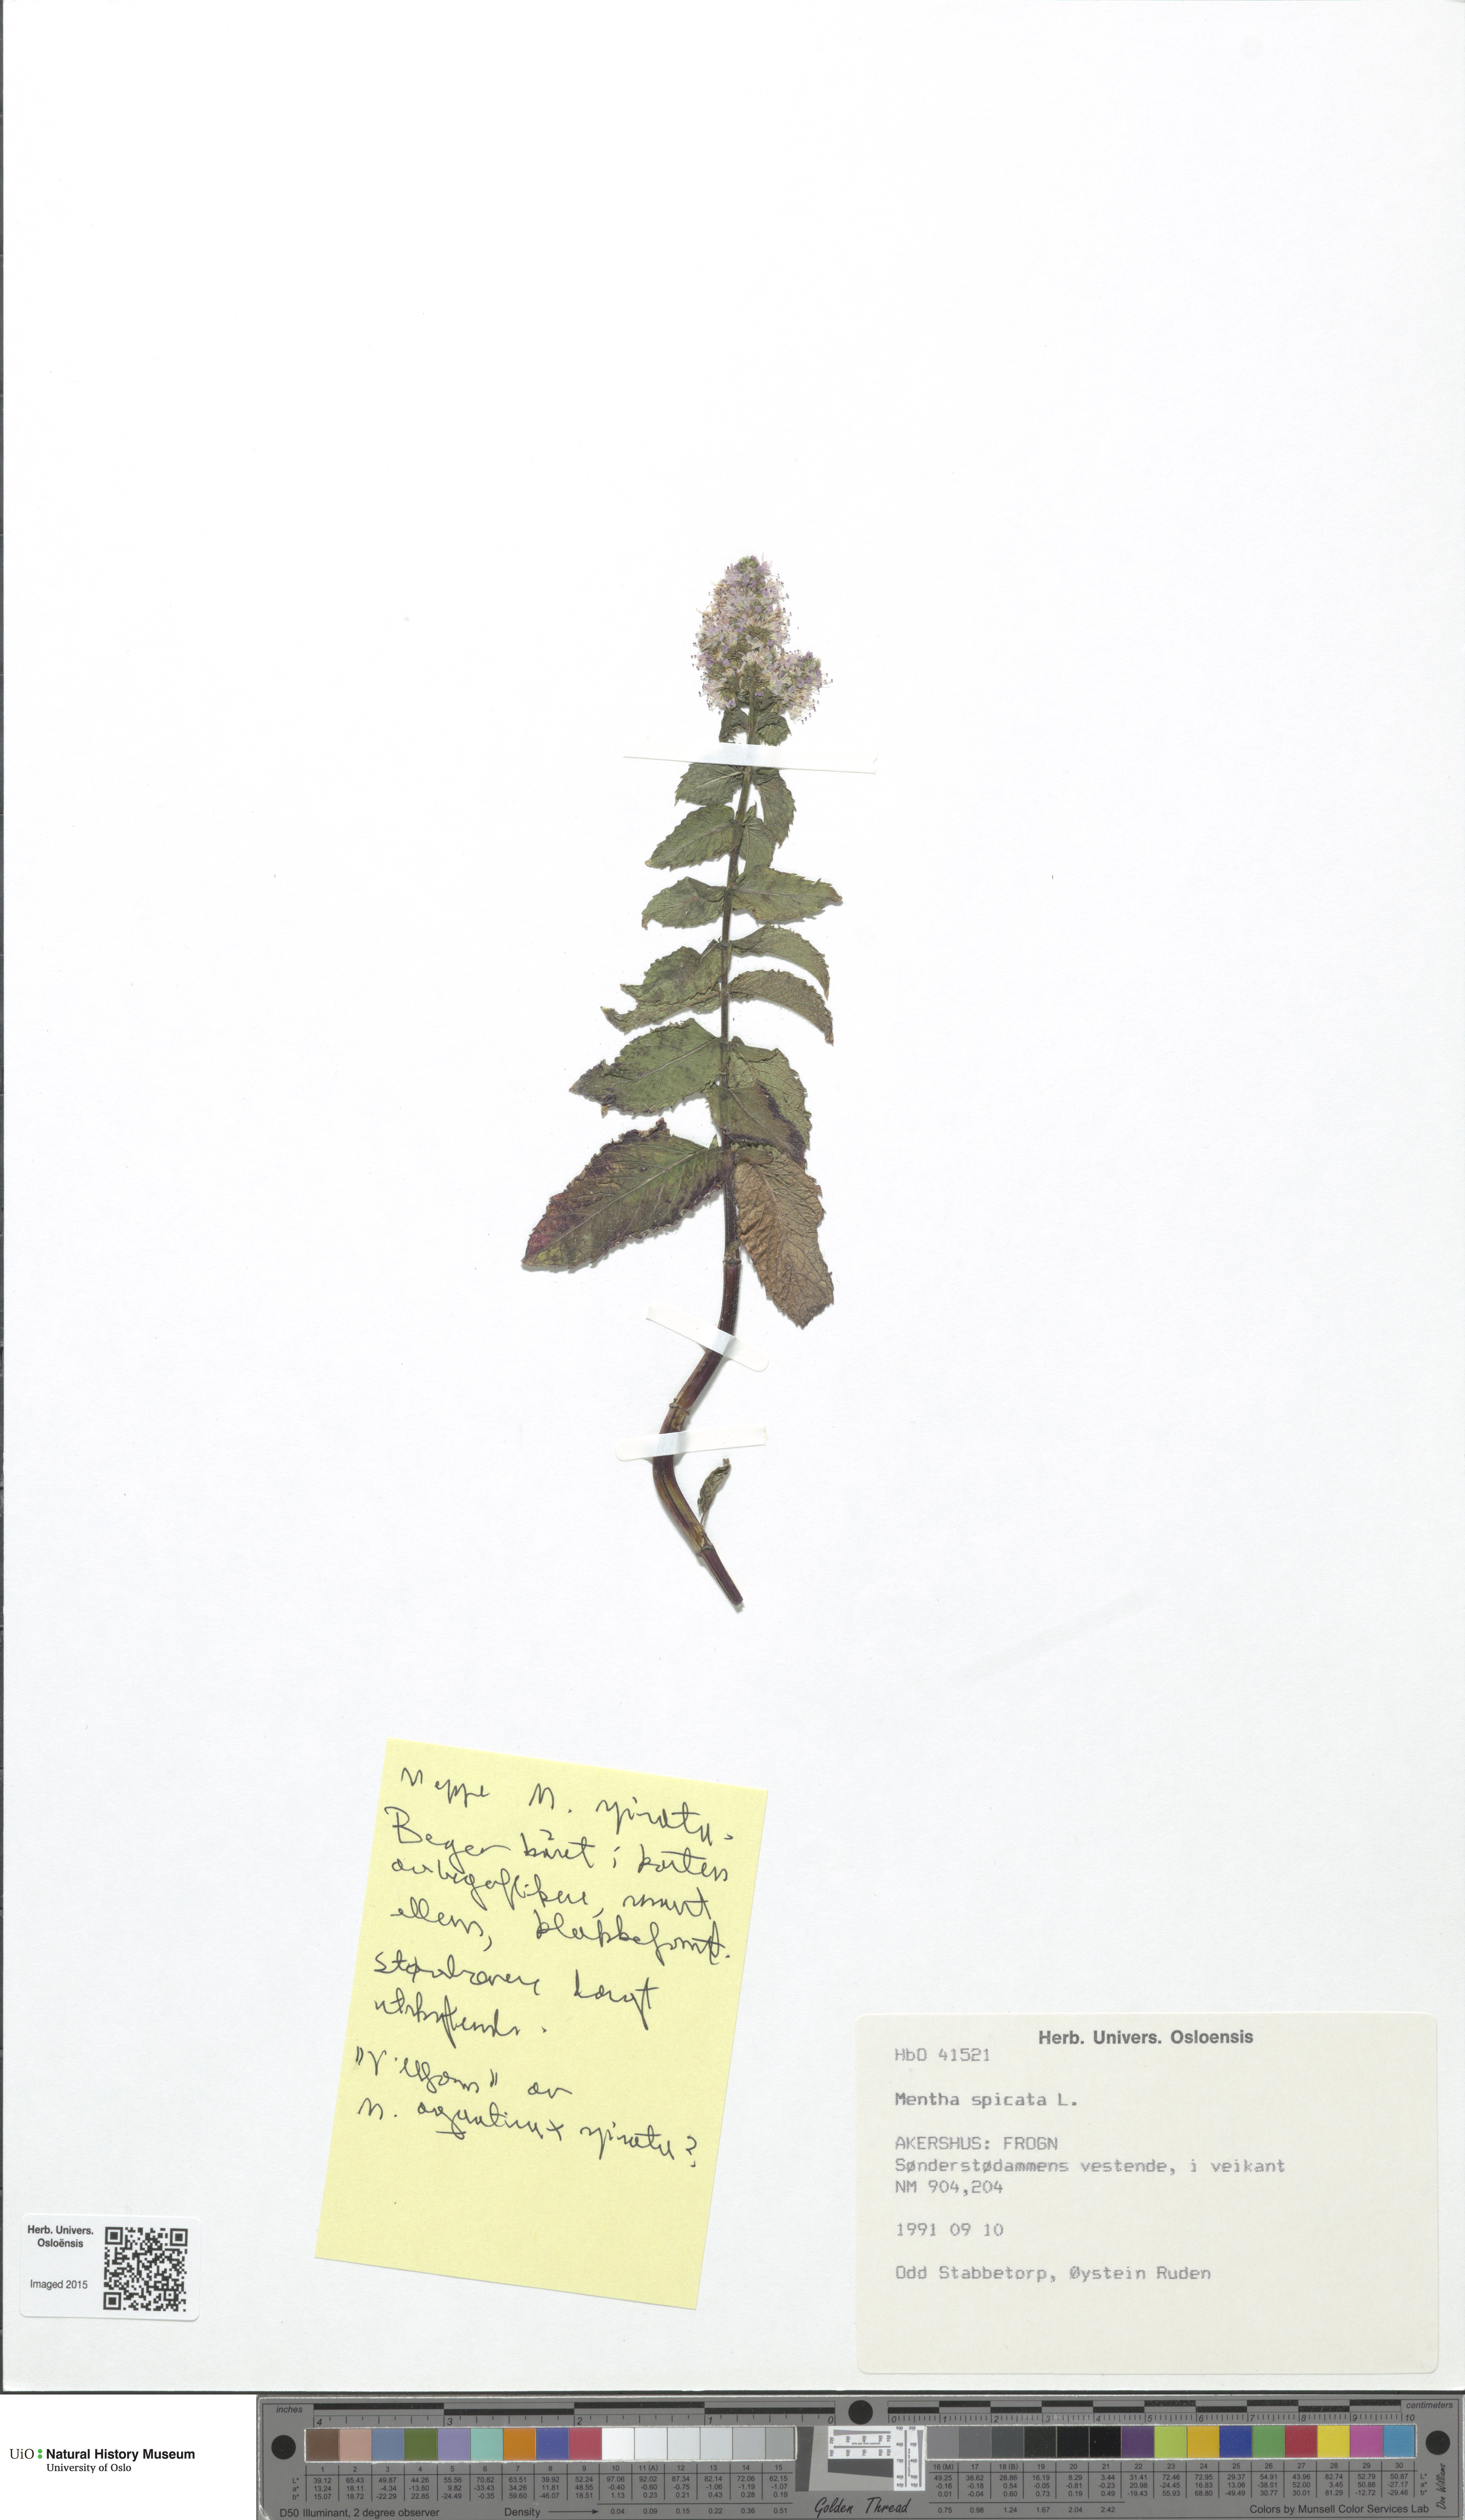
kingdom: Plantae
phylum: Tracheophyta
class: Magnoliopsida
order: Lamiales
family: Lamiaceae
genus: Mentha
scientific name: Mentha spicata
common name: Spearmint
